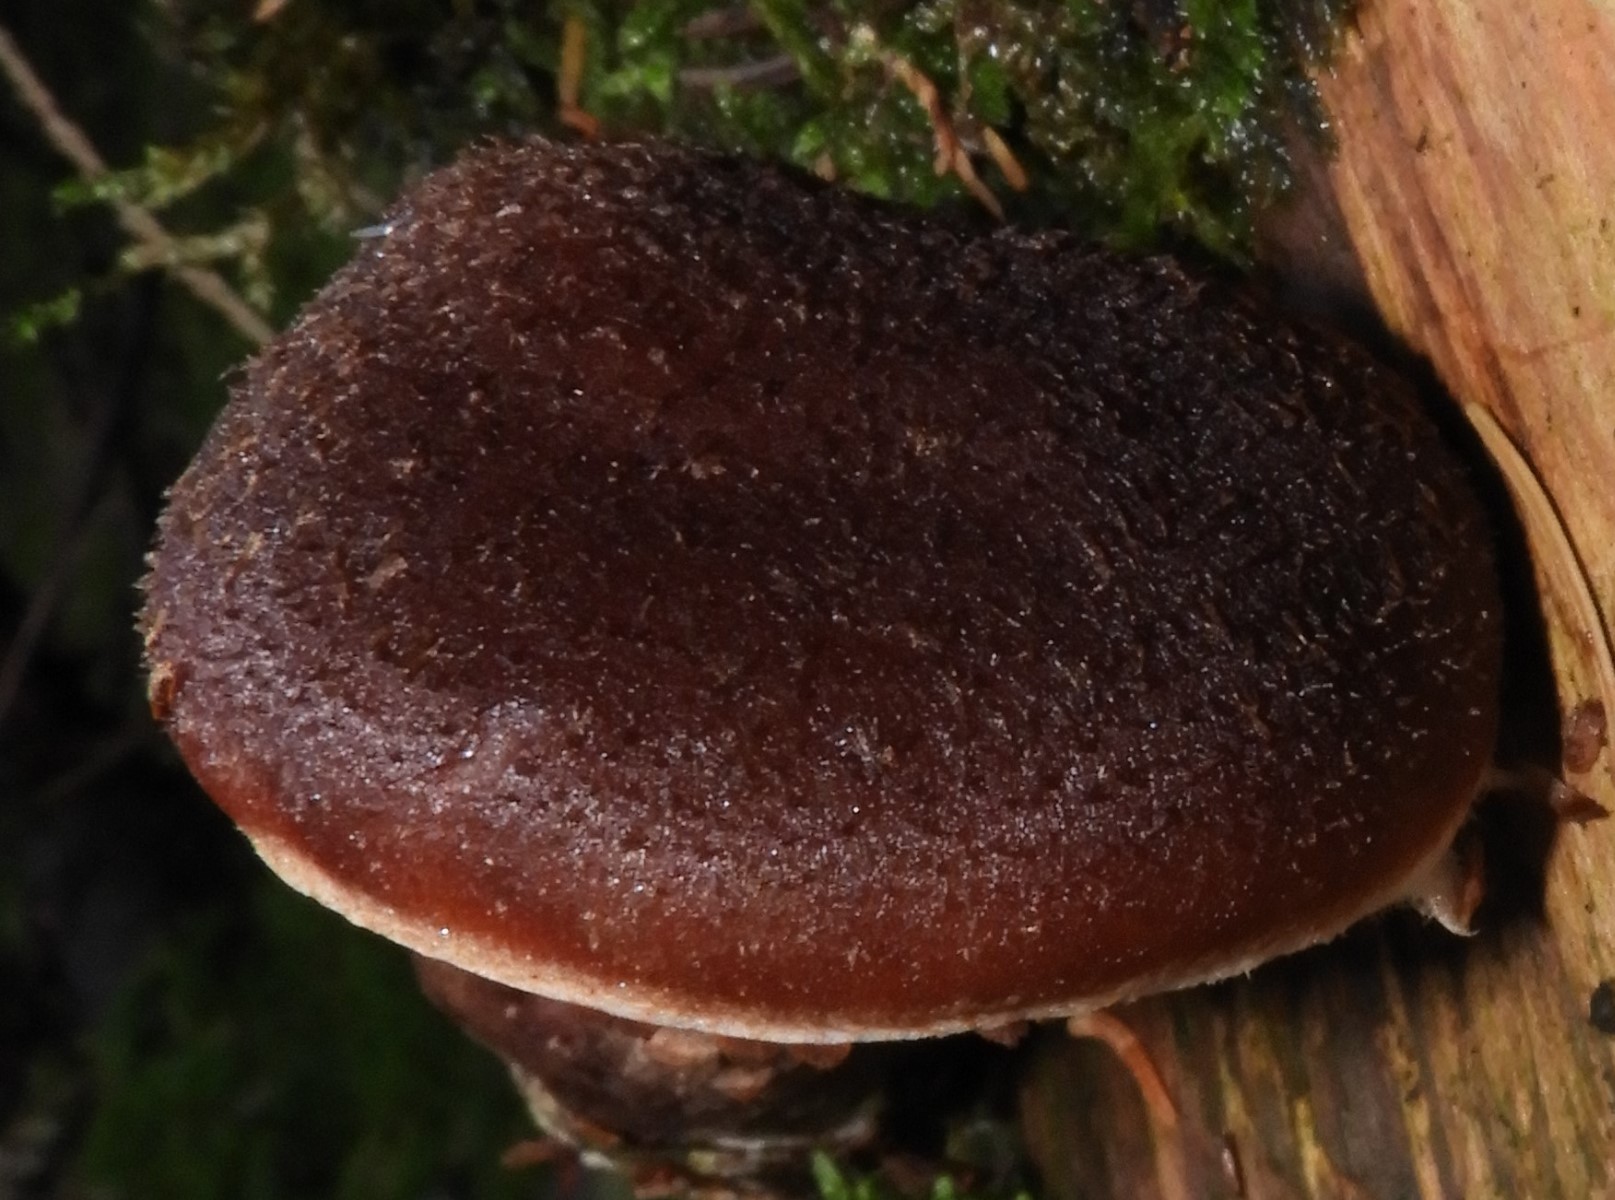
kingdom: Fungi
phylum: Basidiomycota
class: Agaricomycetes
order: Agaricales
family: Physalacriaceae
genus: Armillaria
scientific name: Armillaria ostoyae
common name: mørk honningsvamp
